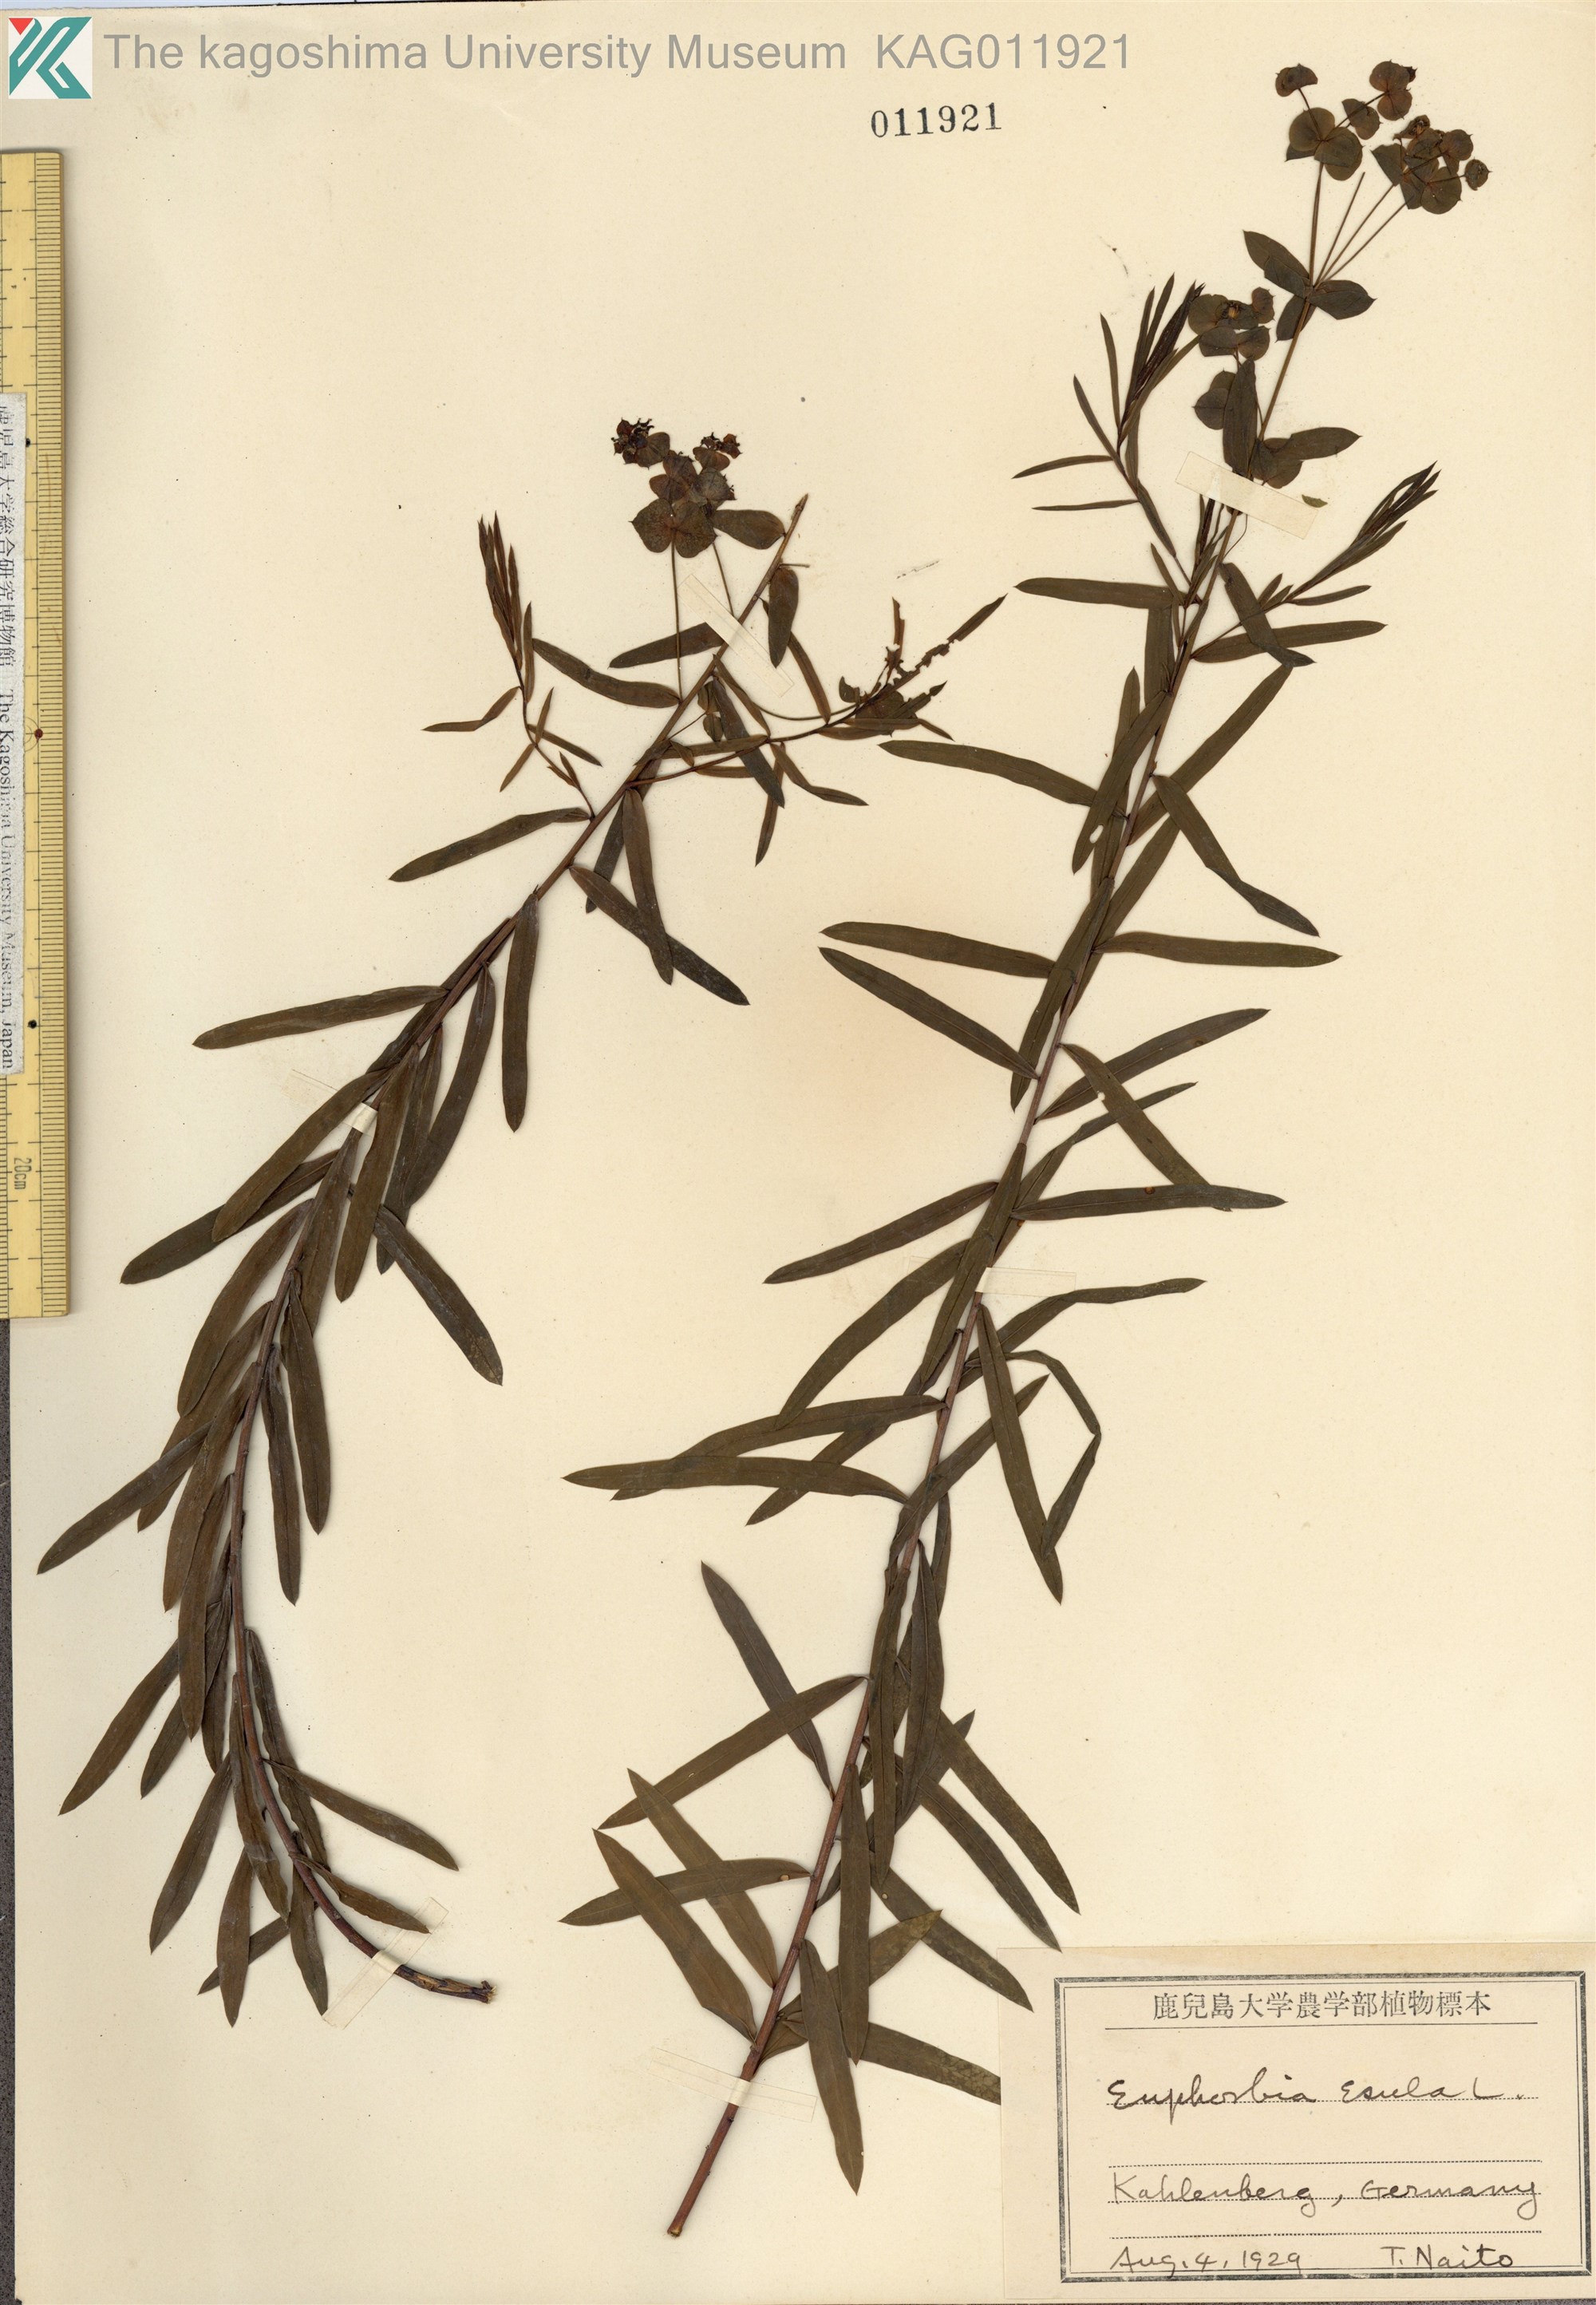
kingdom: Plantae
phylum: Tracheophyta
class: Magnoliopsida
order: Malpighiales
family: Euphorbiaceae
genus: Euphorbia
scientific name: Euphorbia
